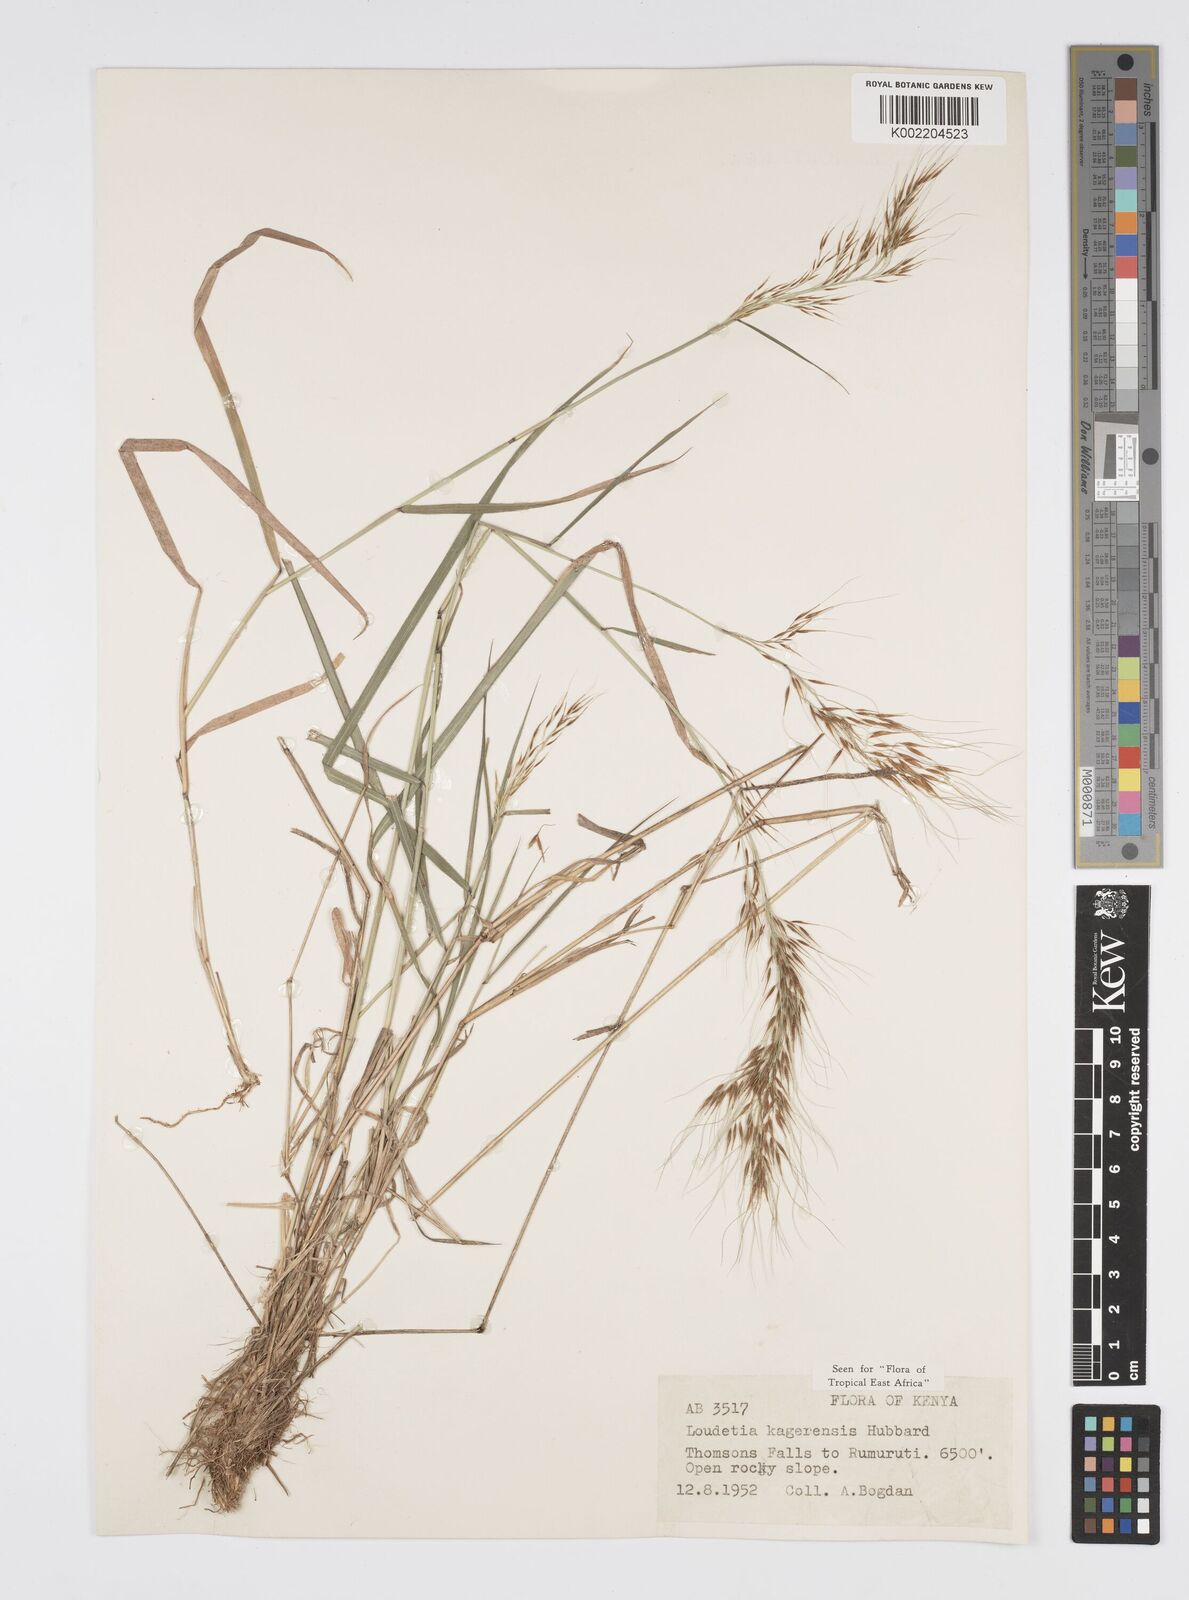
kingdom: Plantae
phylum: Tracheophyta
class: Liliopsida
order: Poales
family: Poaceae
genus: Loudetia
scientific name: Loudetia kagerensis
